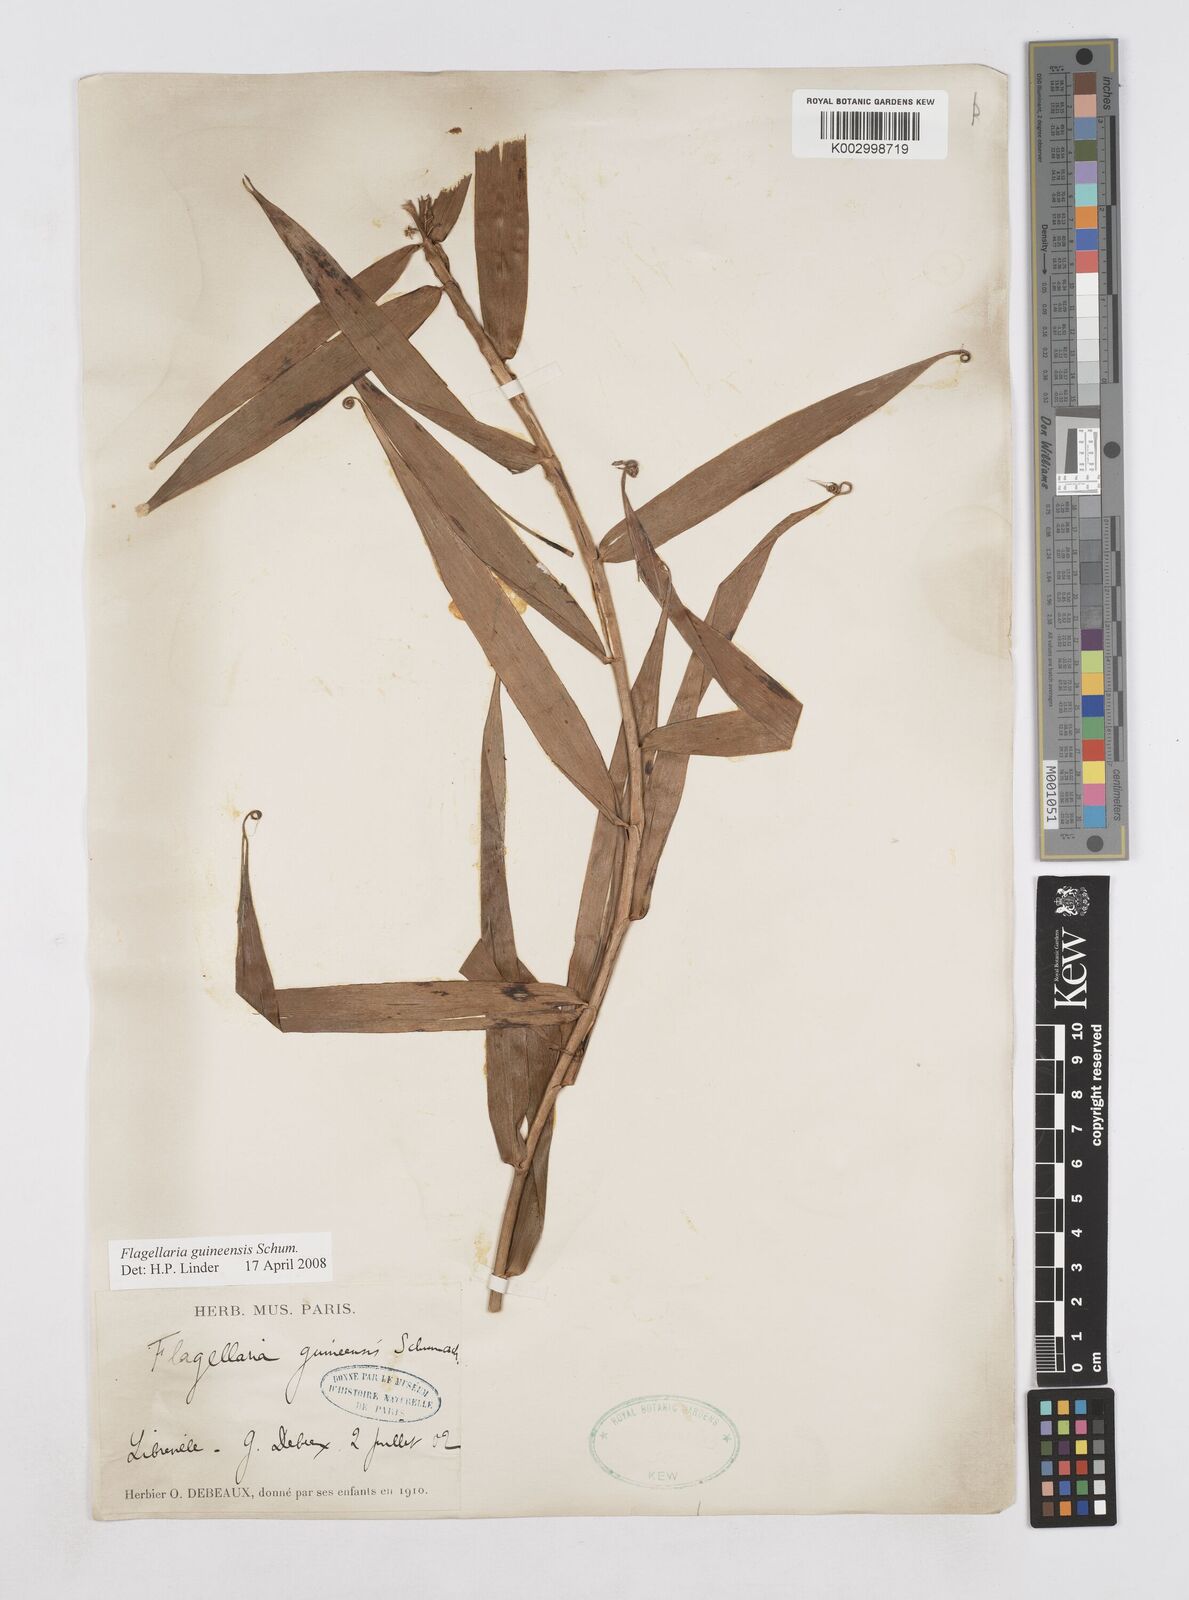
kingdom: Plantae
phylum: Tracheophyta
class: Liliopsida
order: Poales
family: Flagellariaceae
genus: Flagellaria
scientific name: Flagellaria guineensis
